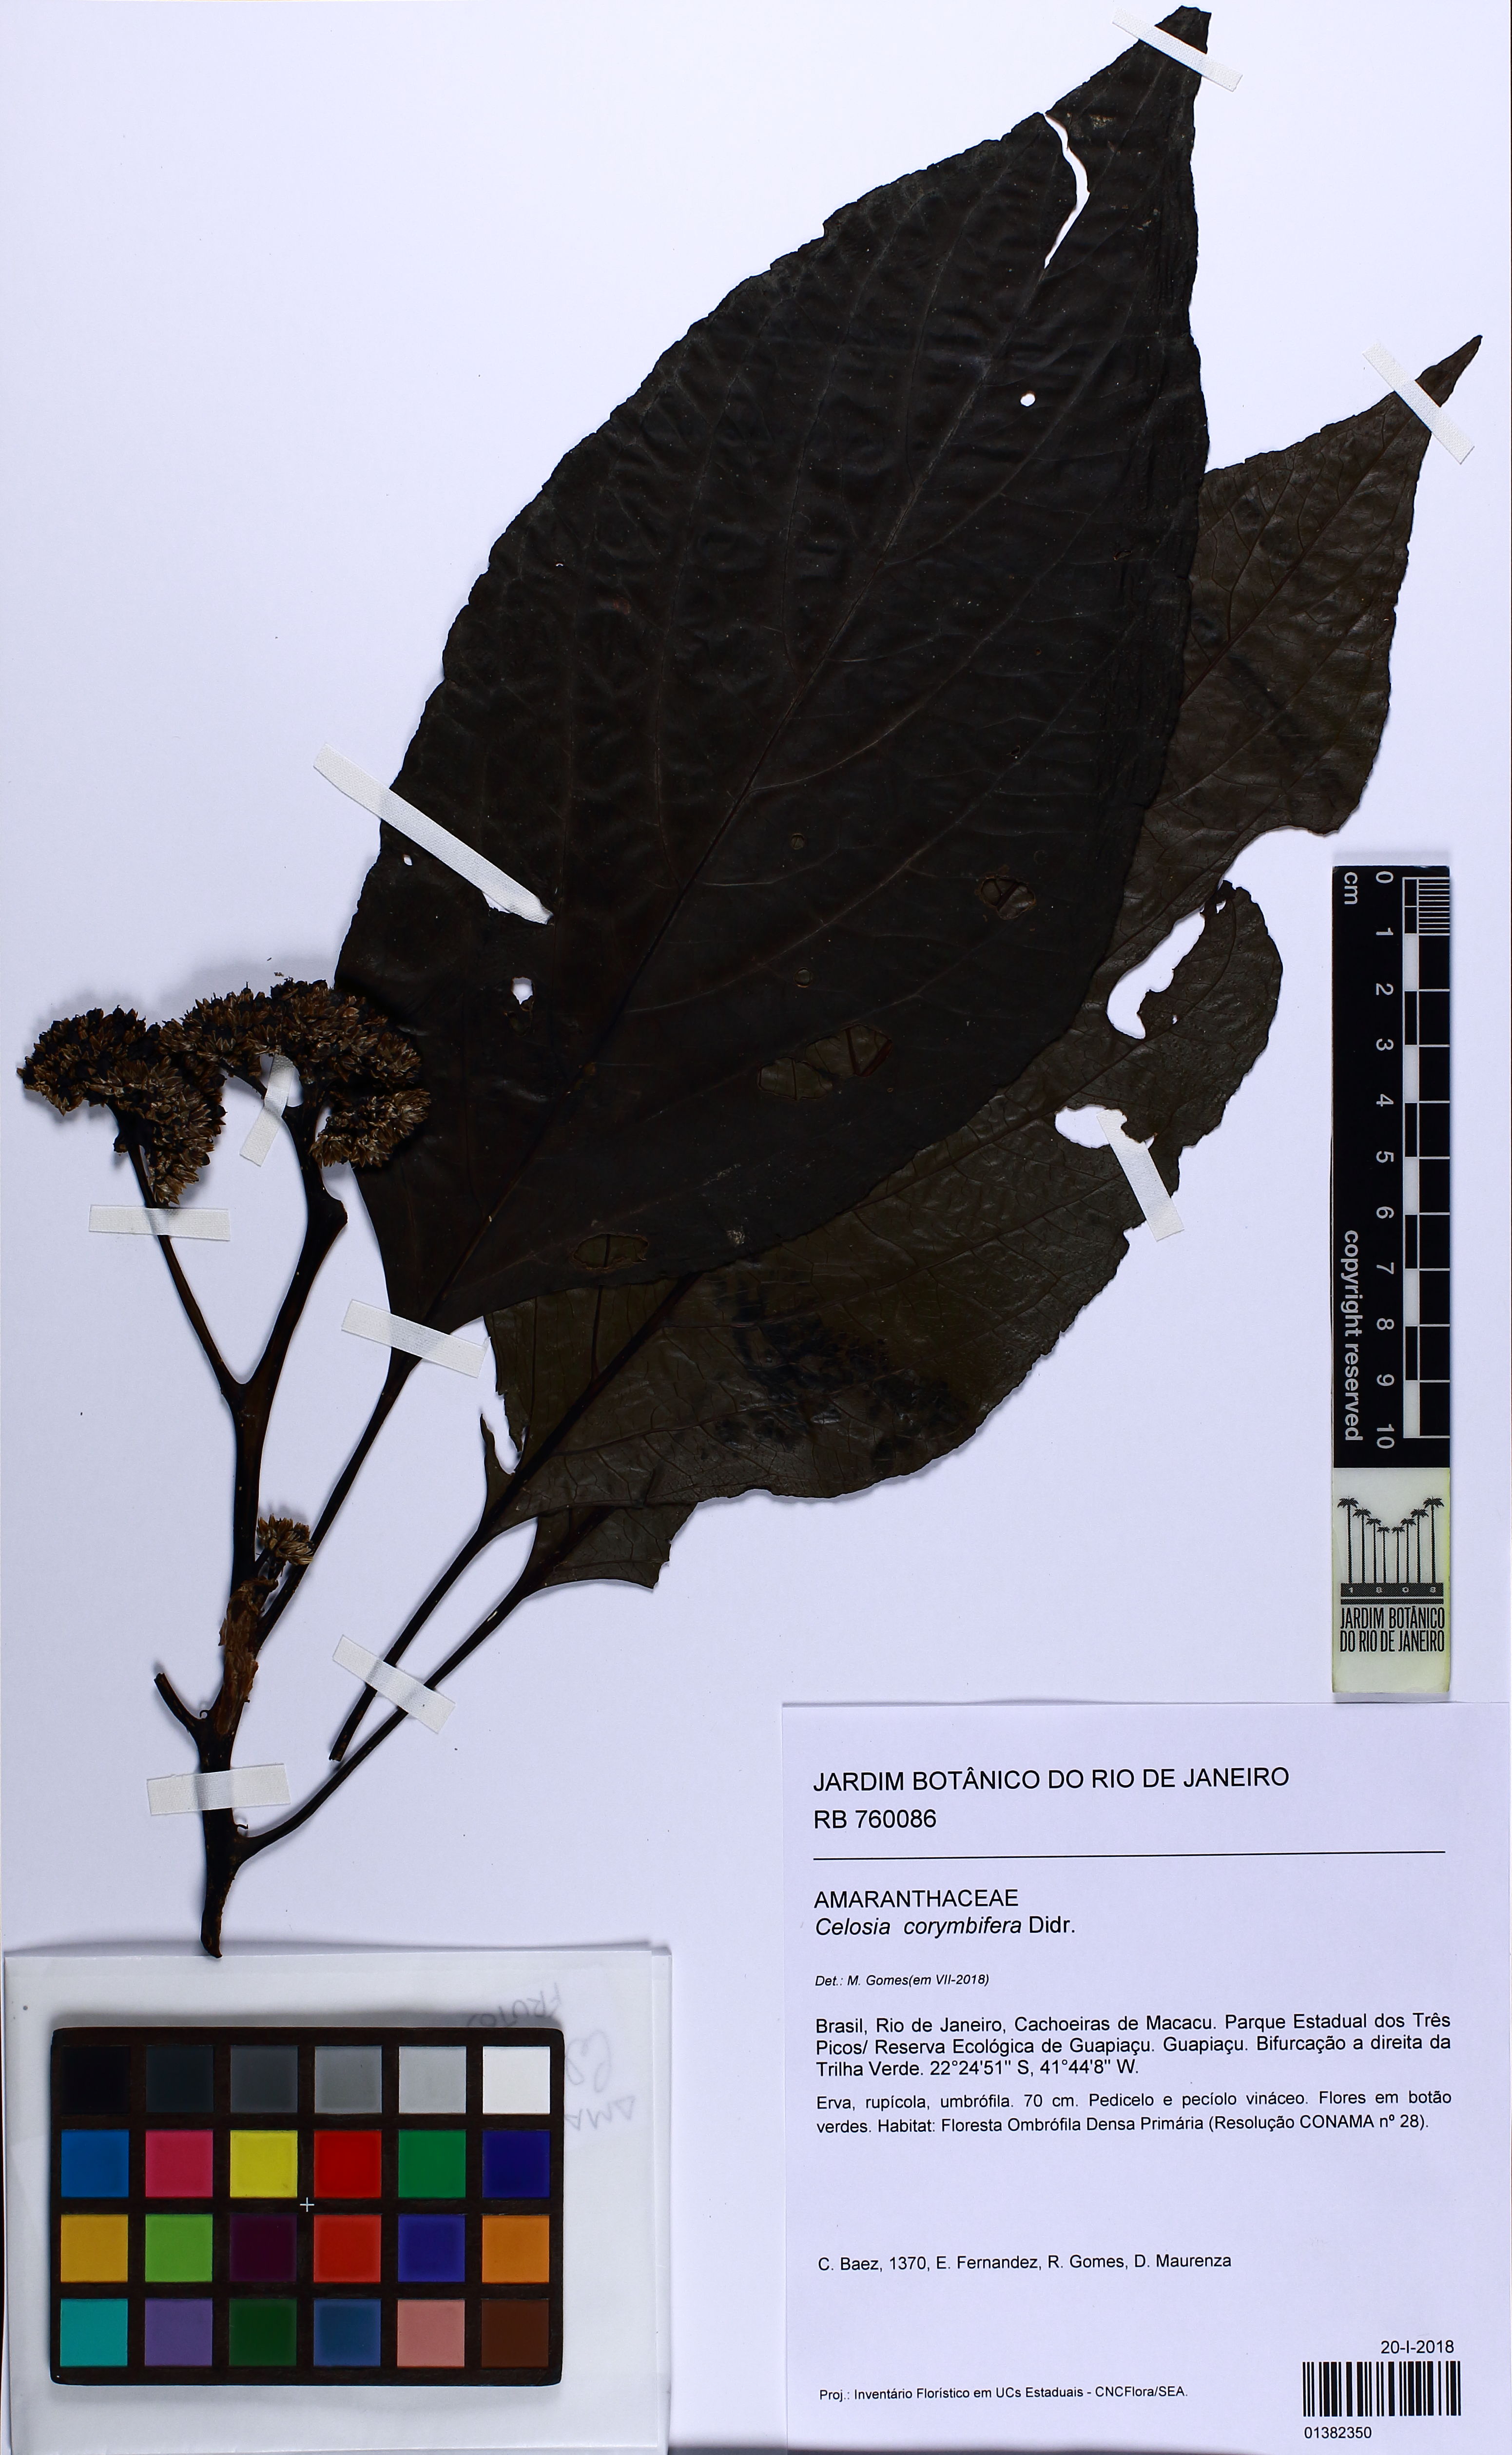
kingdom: Plantae
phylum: Tracheophyta
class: Magnoliopsida
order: Caryophyllales
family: Amaranthaceae
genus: Celosia
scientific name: Celosia corymbifera
